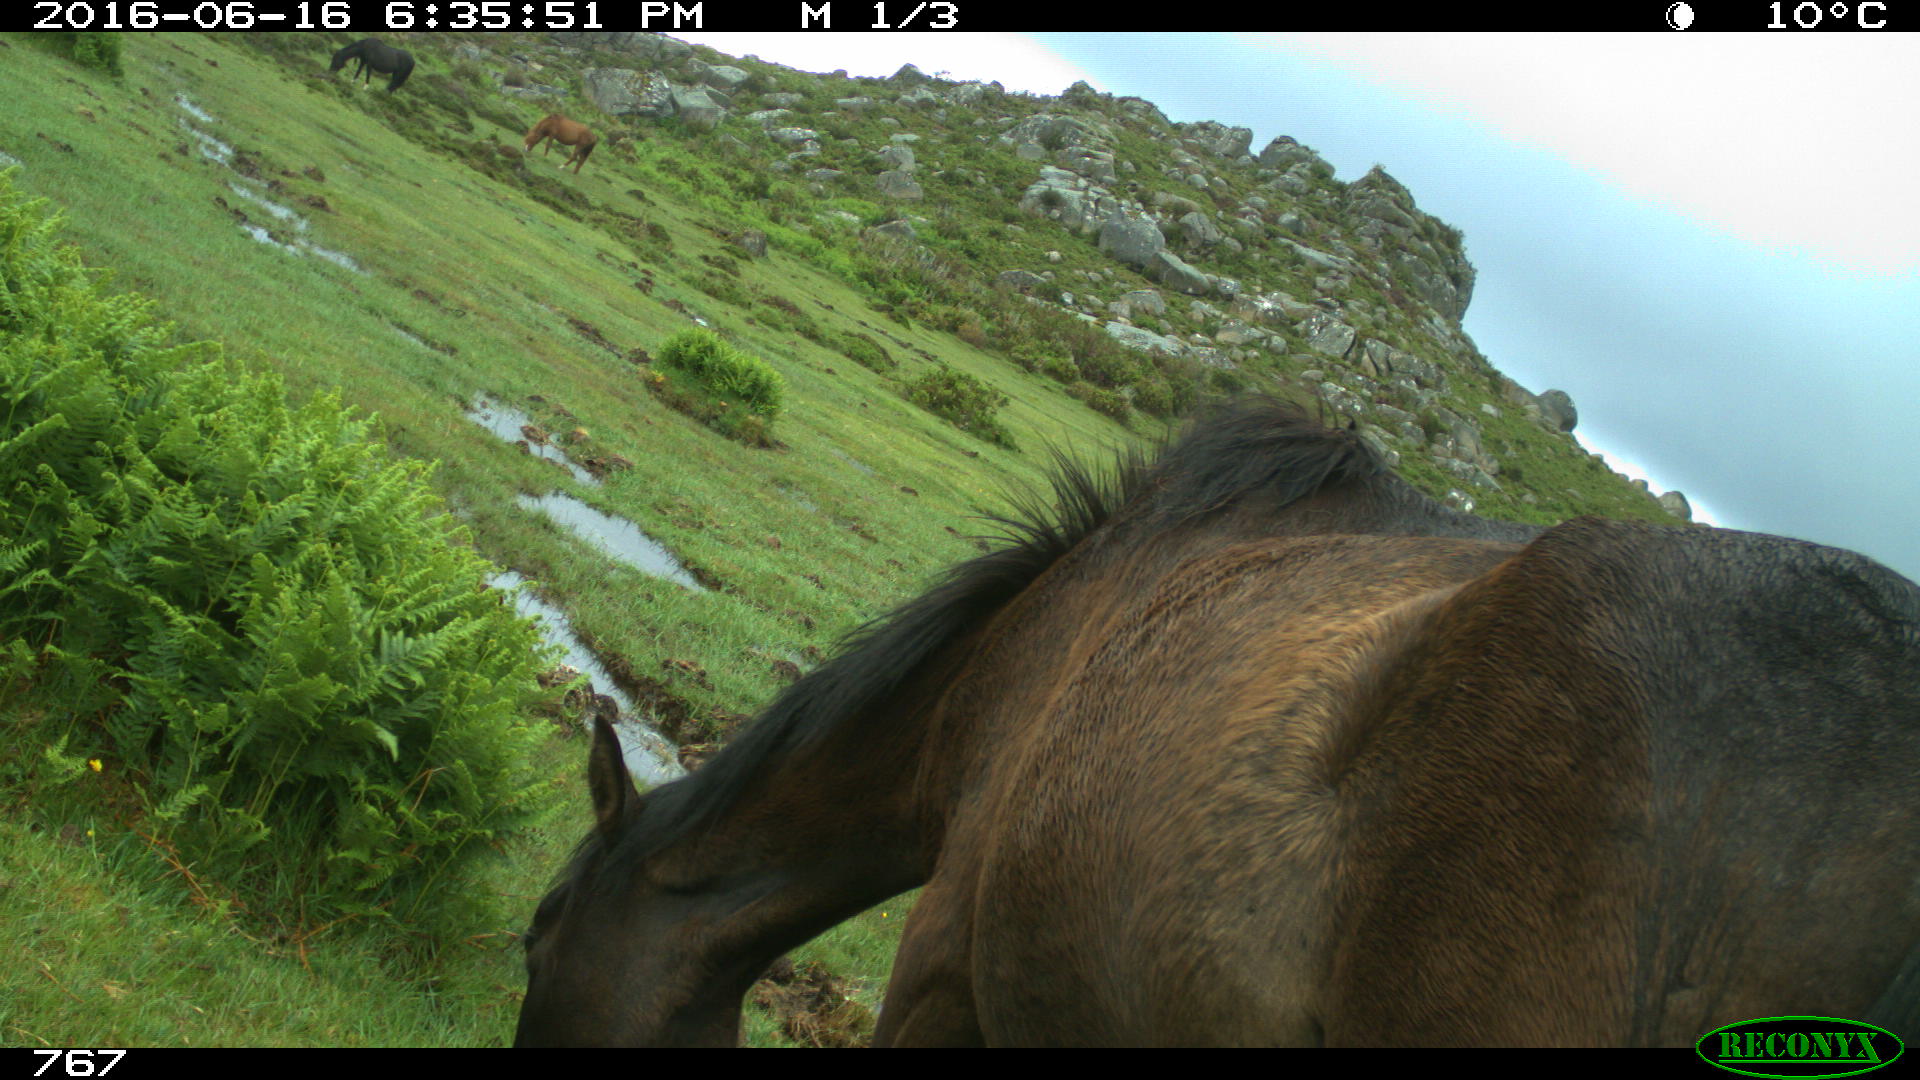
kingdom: Animalia
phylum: Chordata
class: Mammalia
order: Perissodactyla
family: Equidae
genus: Equus
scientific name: Equus caballus
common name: Horse
